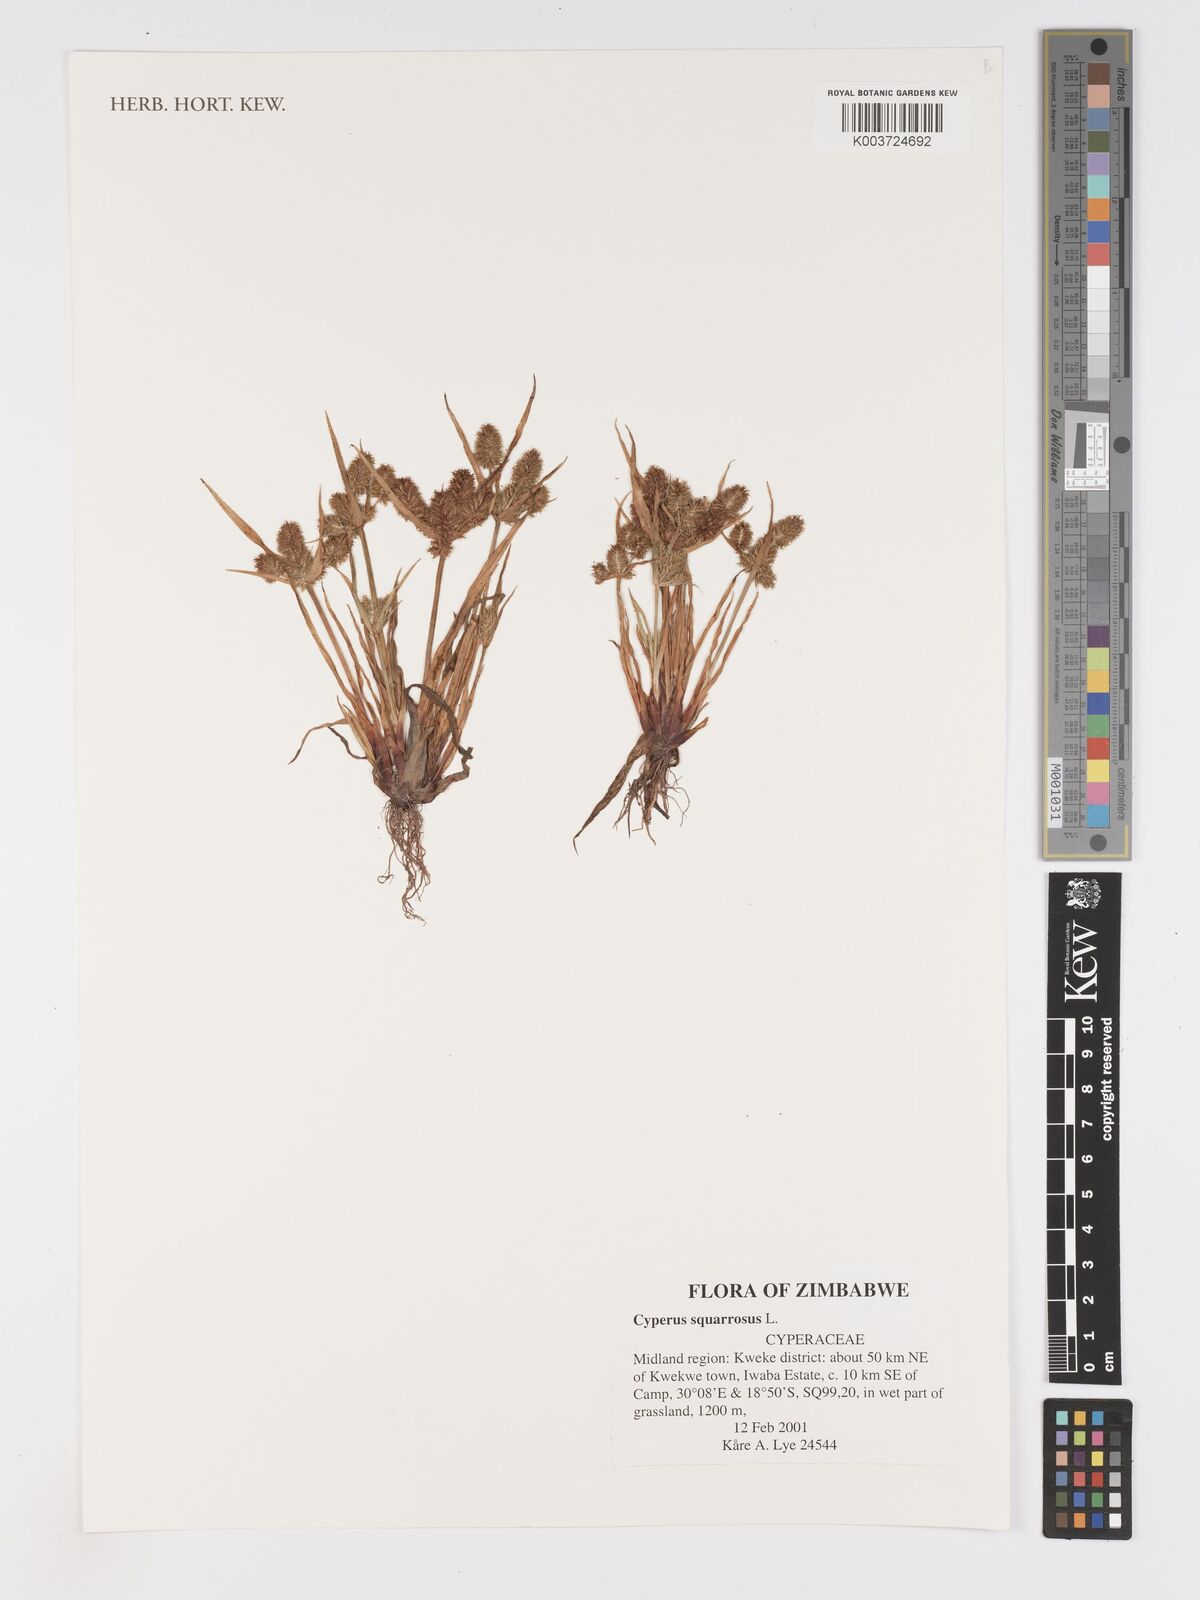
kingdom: Plantae
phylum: Tracheophyta
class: Liliopsida
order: Poales
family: Cyperaceae
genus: Cyperus
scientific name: Cyperus squarrosus
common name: Awned cyperus
